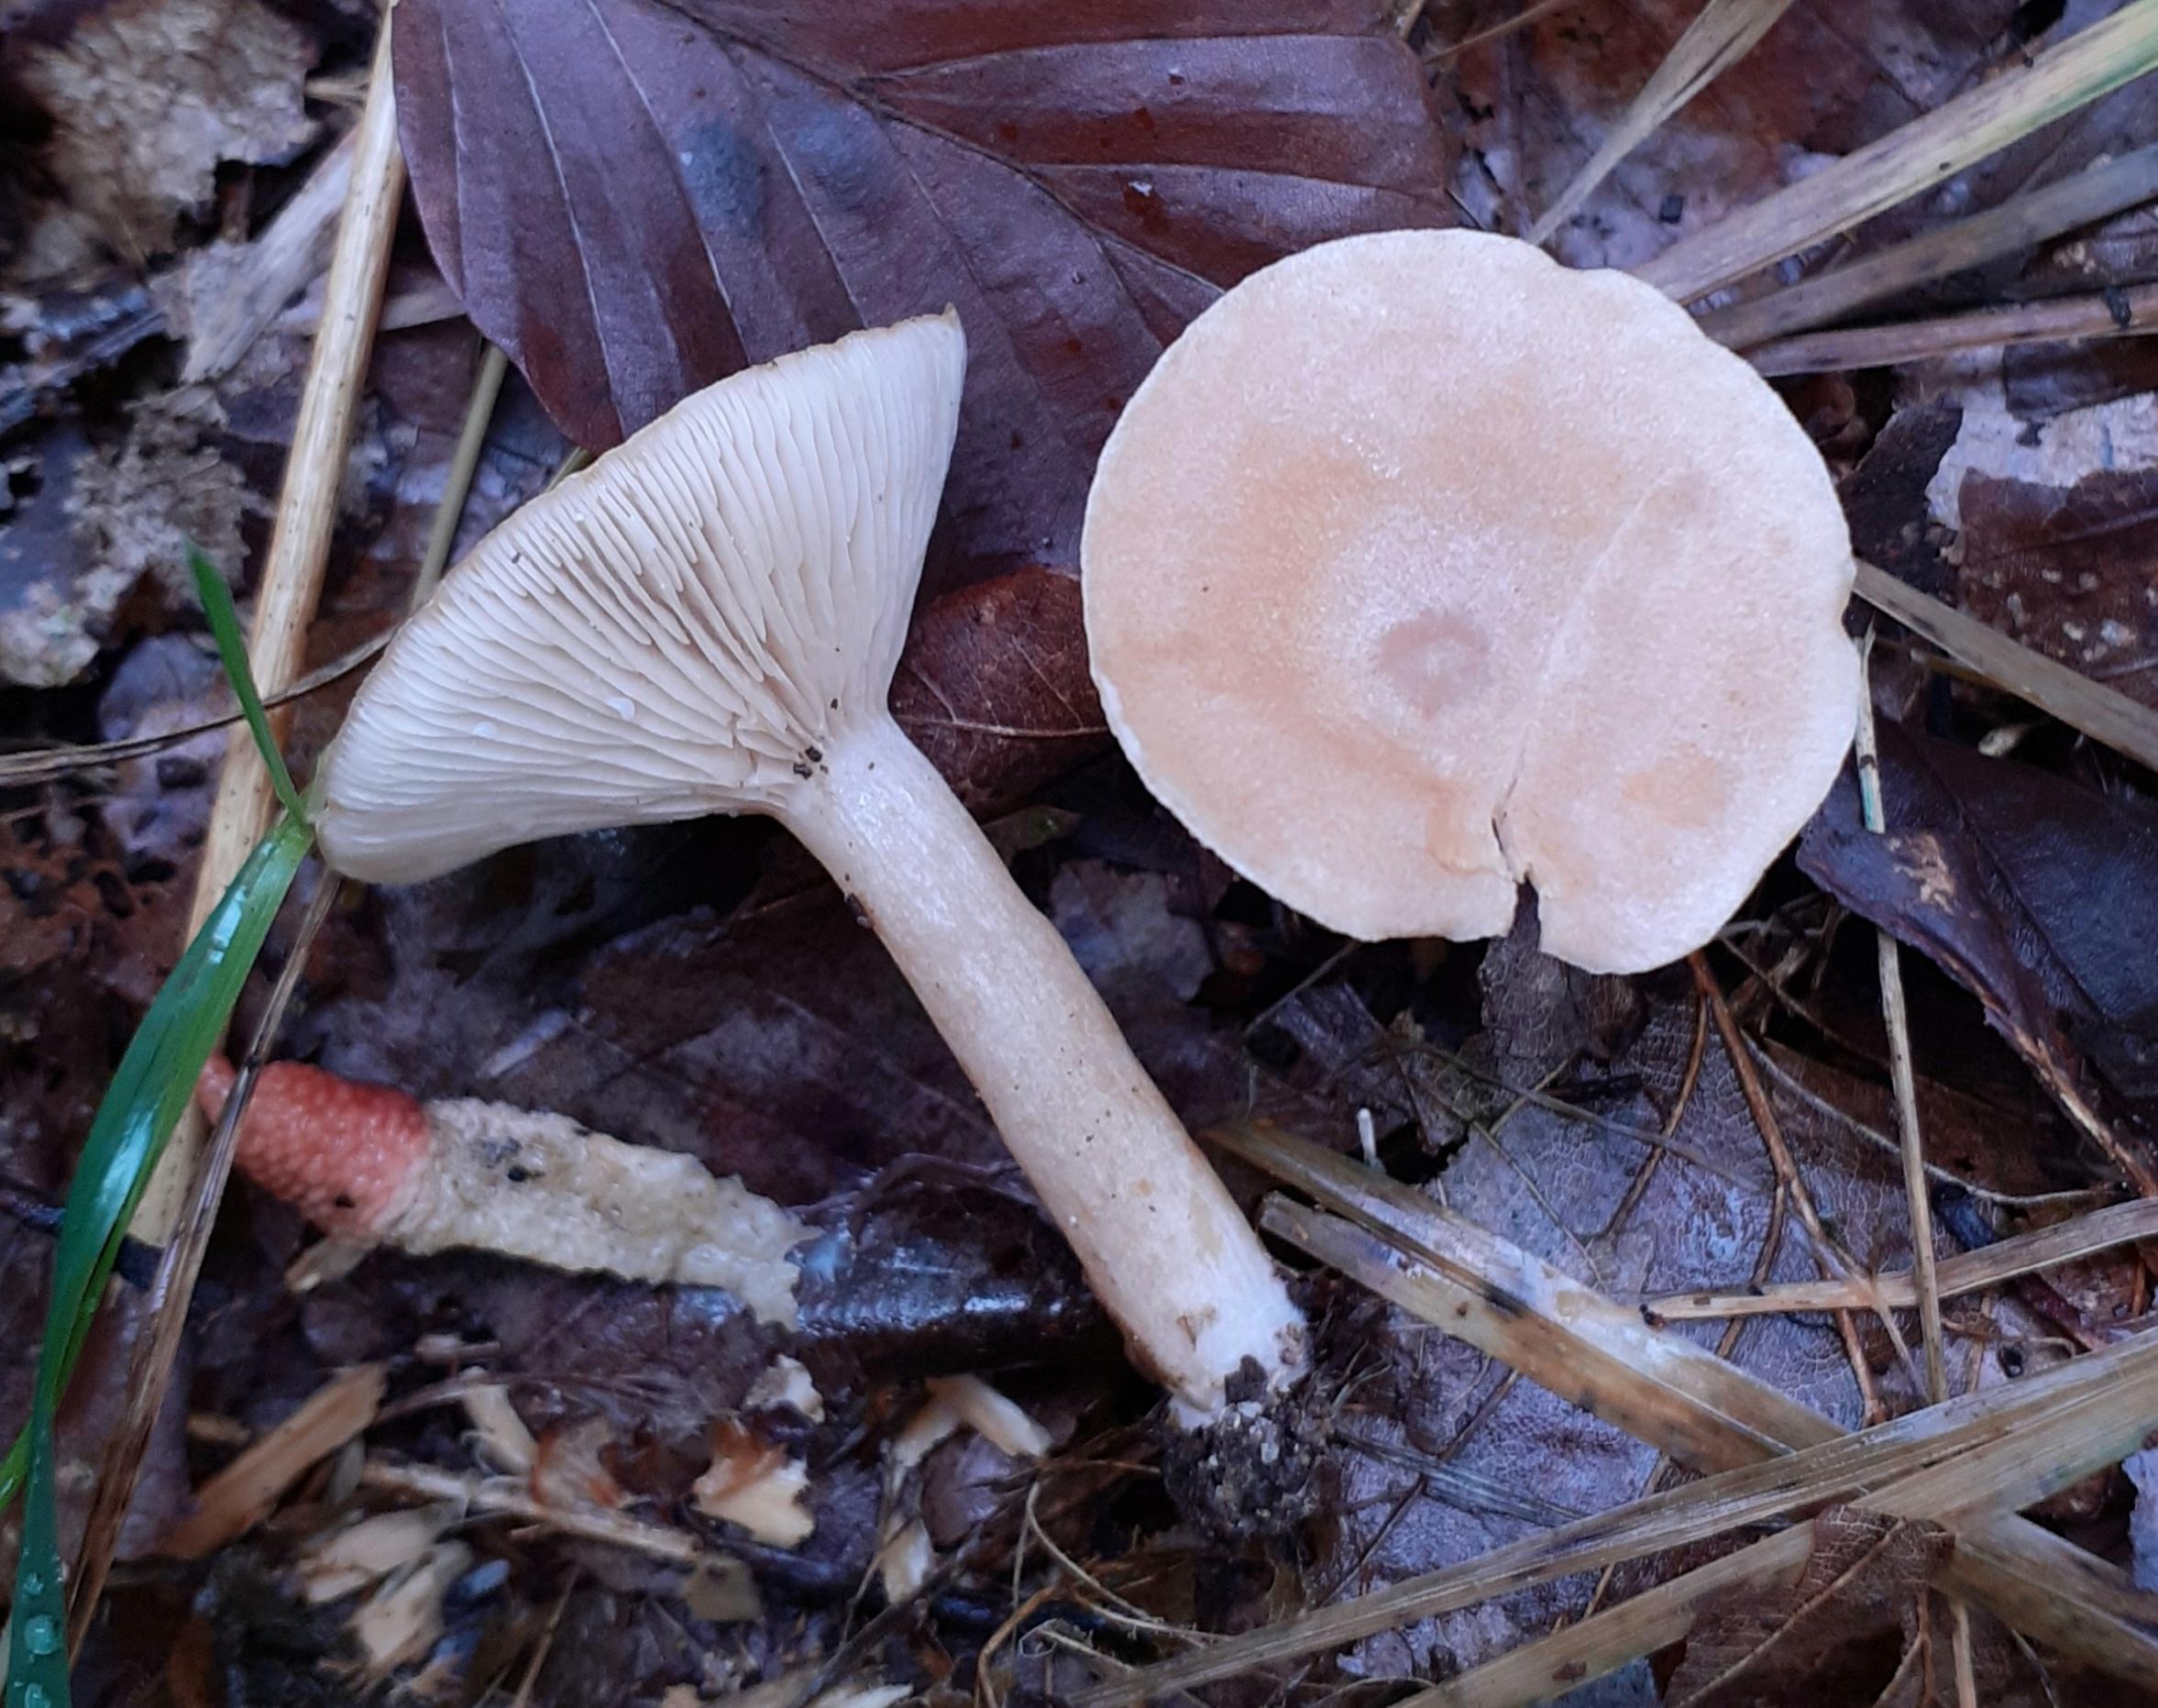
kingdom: Fungi
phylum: Basidiomycota
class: Agaricomycetes
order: Russulales
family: Russulaceae
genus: Lactarius
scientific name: Lactarius glyciosmus
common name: kokos-mælkehat
